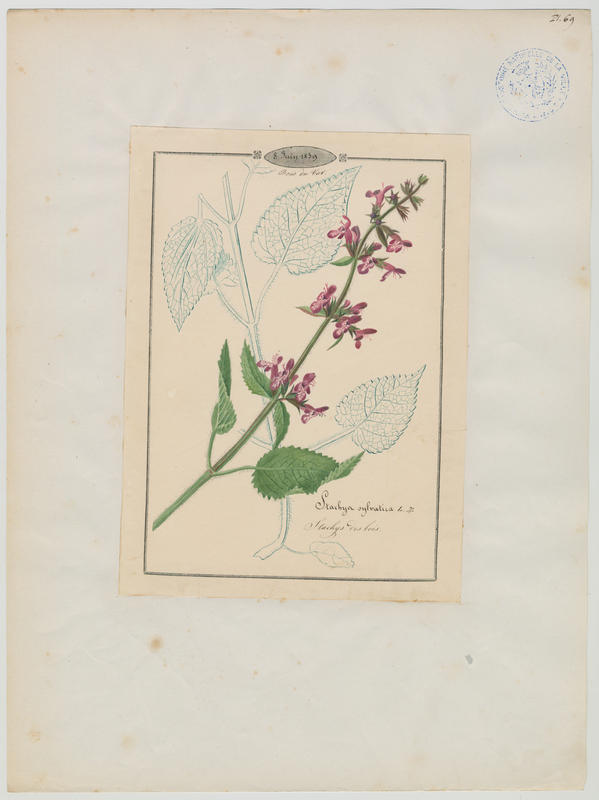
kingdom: Plantae
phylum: Tracheophyta
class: Magnoliopsida
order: Lamiales
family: Lamiaceae
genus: Stachys
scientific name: Stachys sylvatica
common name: Hedge woundwort
